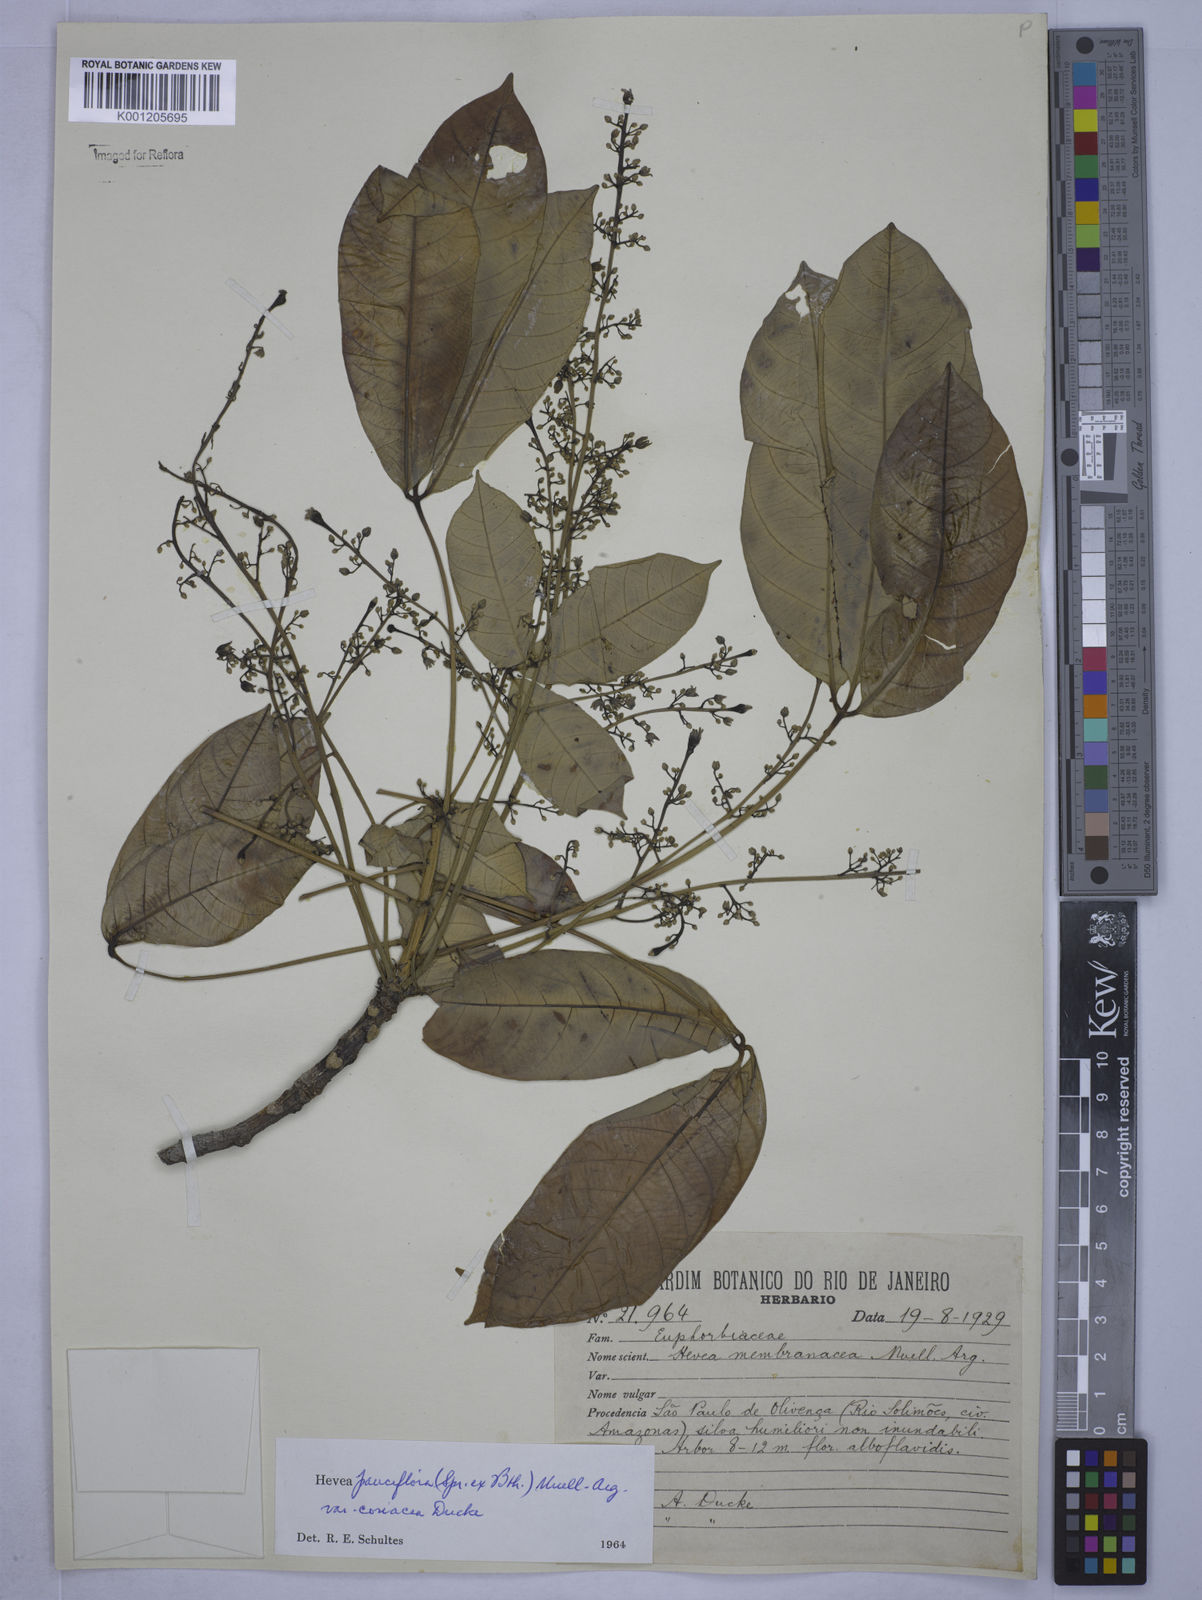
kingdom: Plantae
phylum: Tracheophyta
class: Magnoliopsida
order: Malpighiales
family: Euphorbiaceae
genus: Hevea
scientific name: Hevea pauciflora
